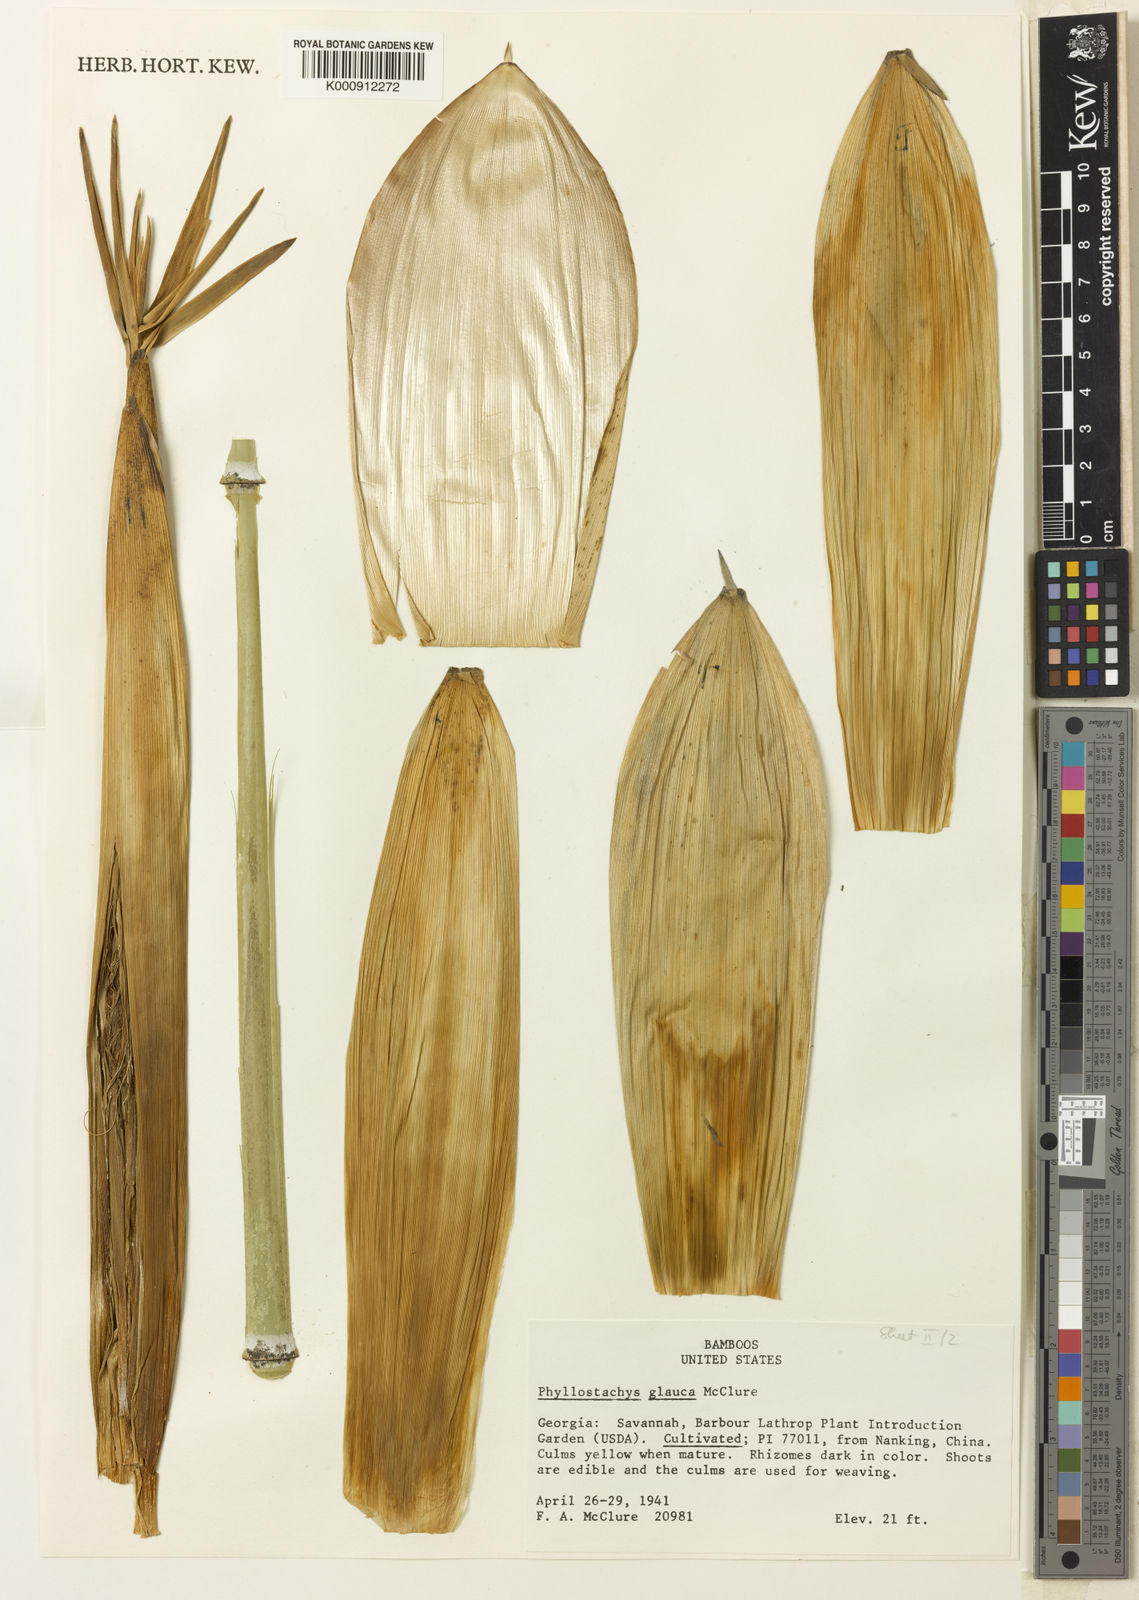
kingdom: Plantae
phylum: Tracheophyta
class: Liliopsida
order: Poales
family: Poaceae
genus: Phyllostachys
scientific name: Phyllostachys glauca
